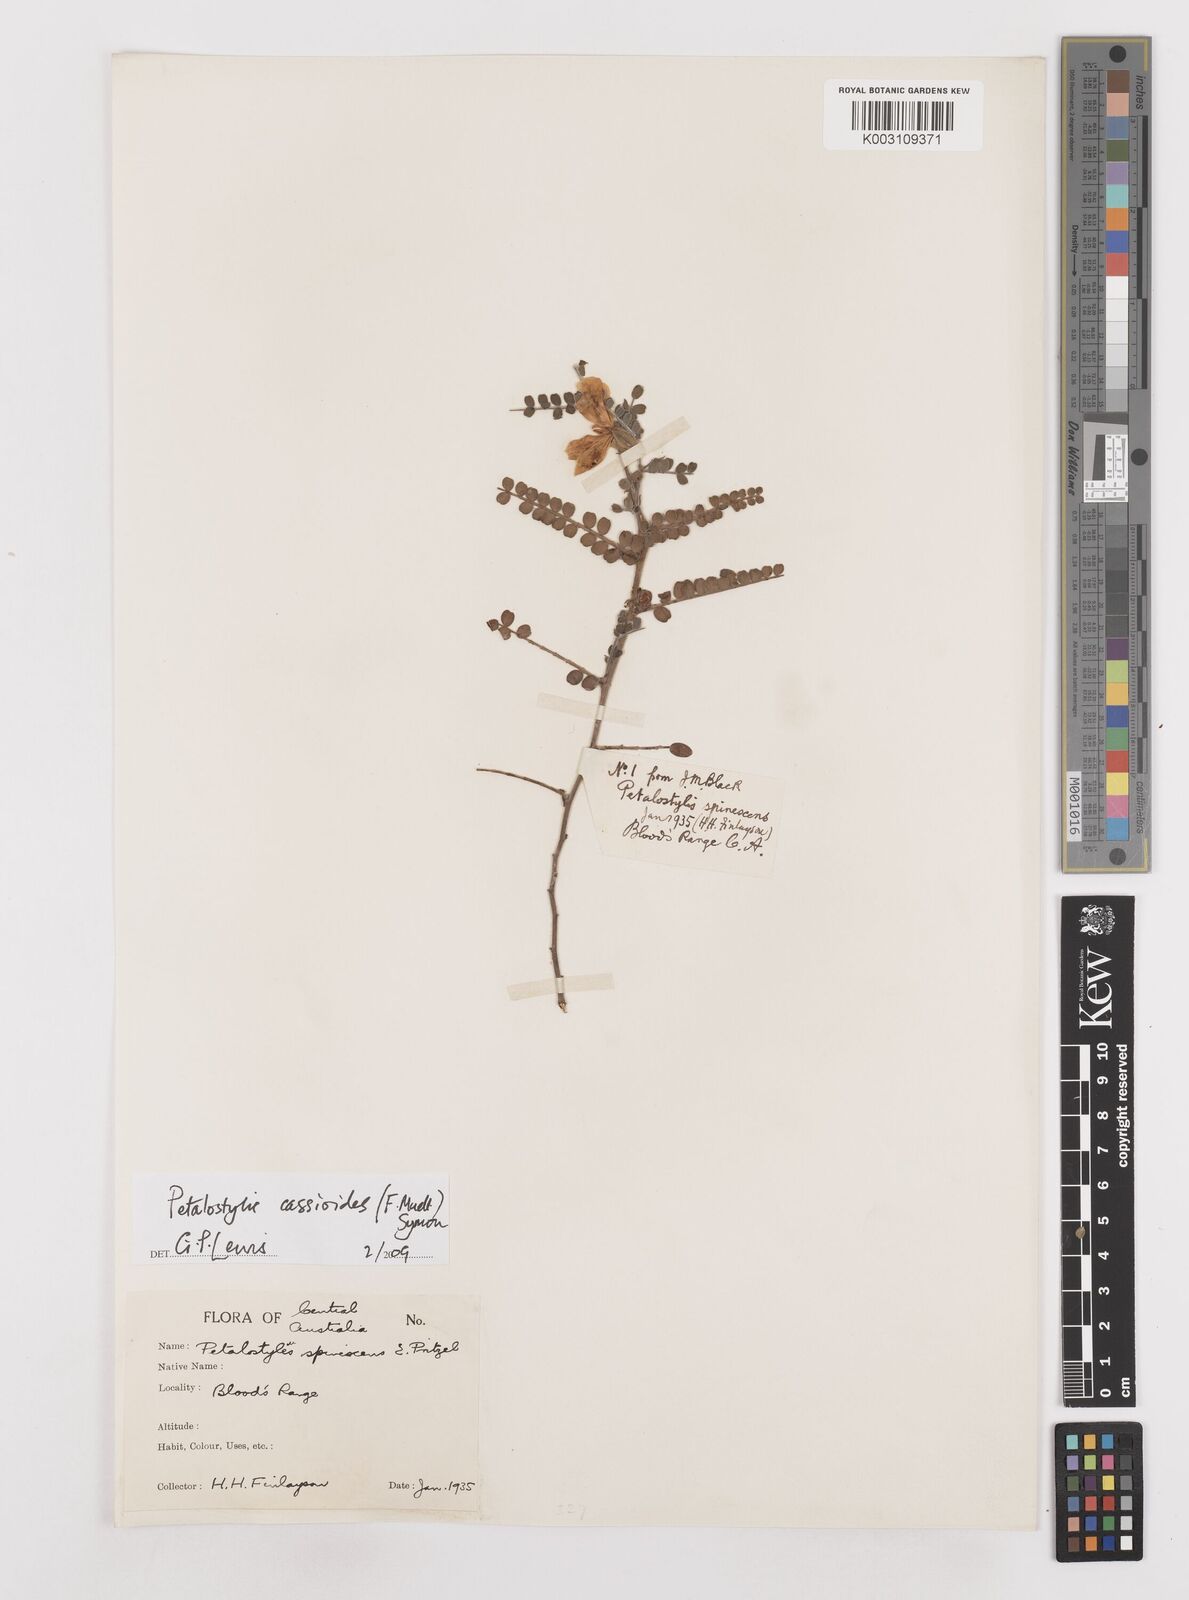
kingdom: Plantae
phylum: Tracheophyta
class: Magnoliopsida
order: Fabales
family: Fabaceae
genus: Petalostylis
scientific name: Petalostylis cassioides
